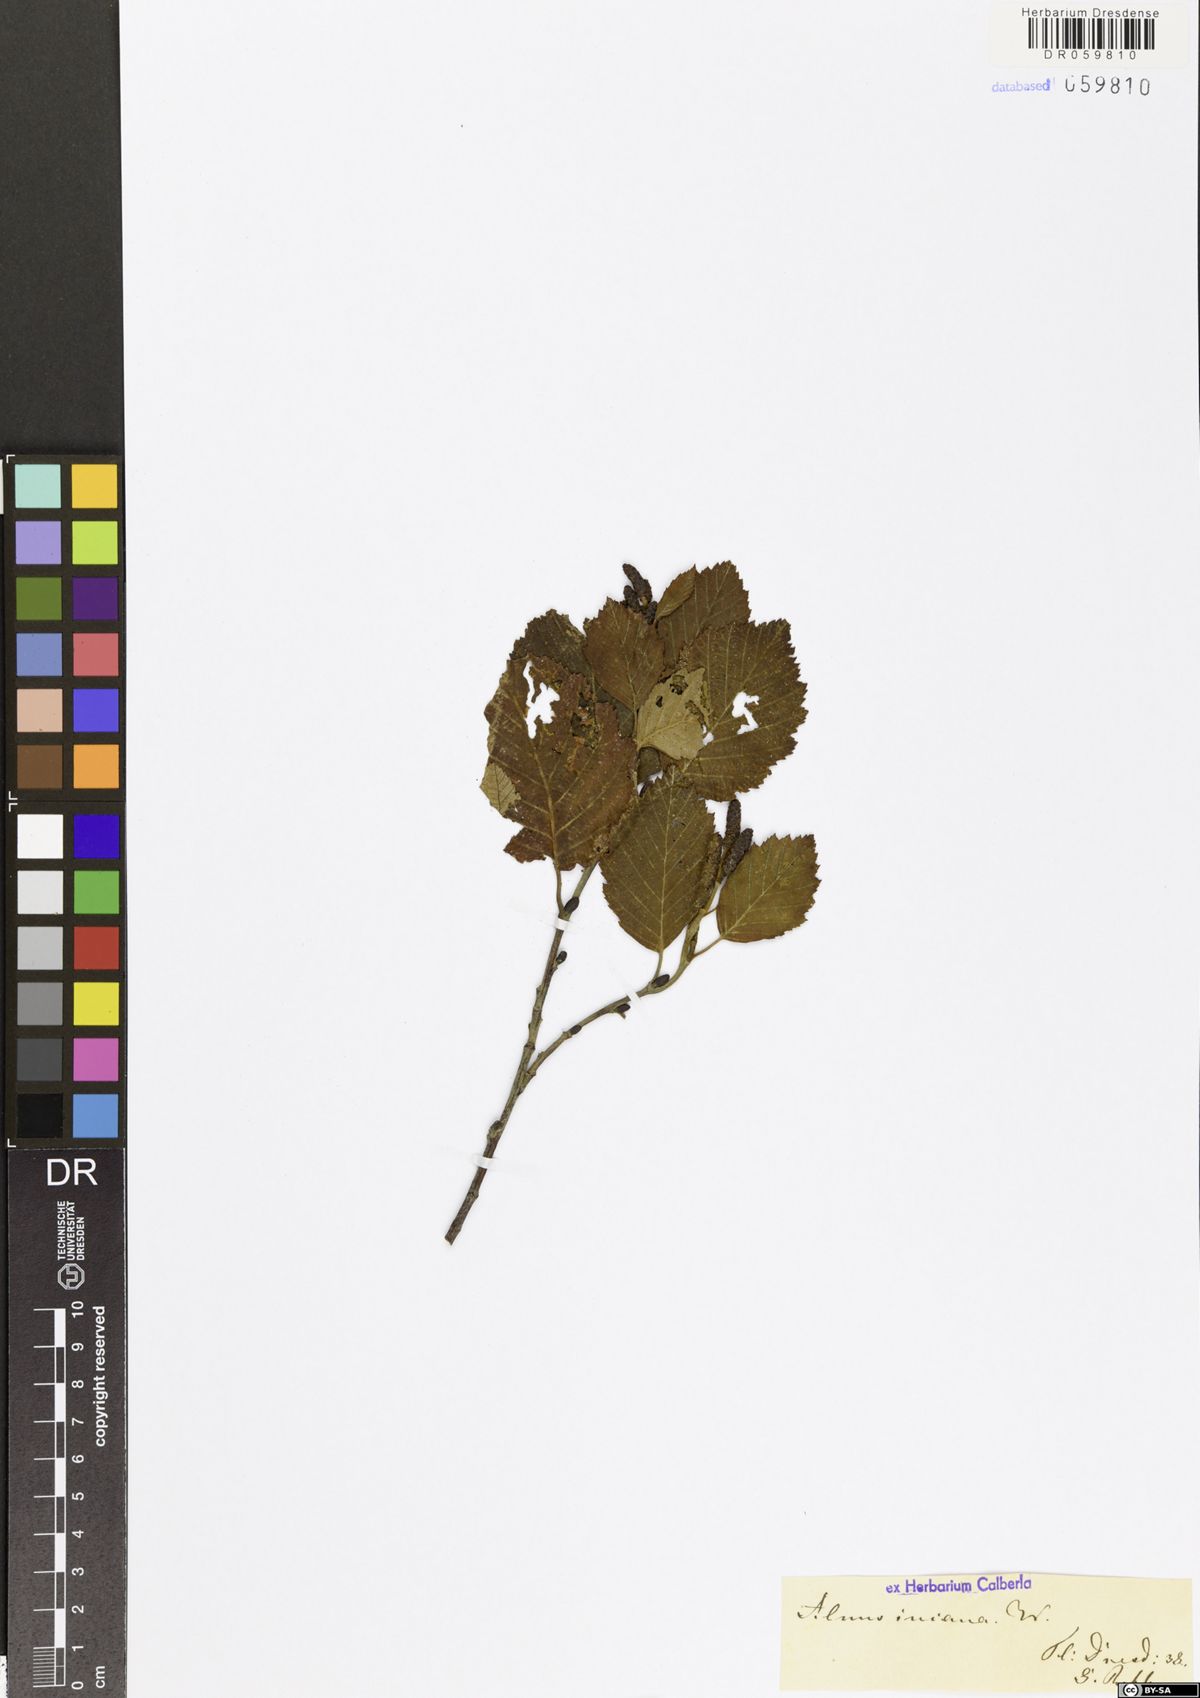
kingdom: Plantae
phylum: Tracheophyta
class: Magnoliopsida
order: Fagales
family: Betulaceae
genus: Alnus
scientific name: Alnus incana
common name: Grey alder
